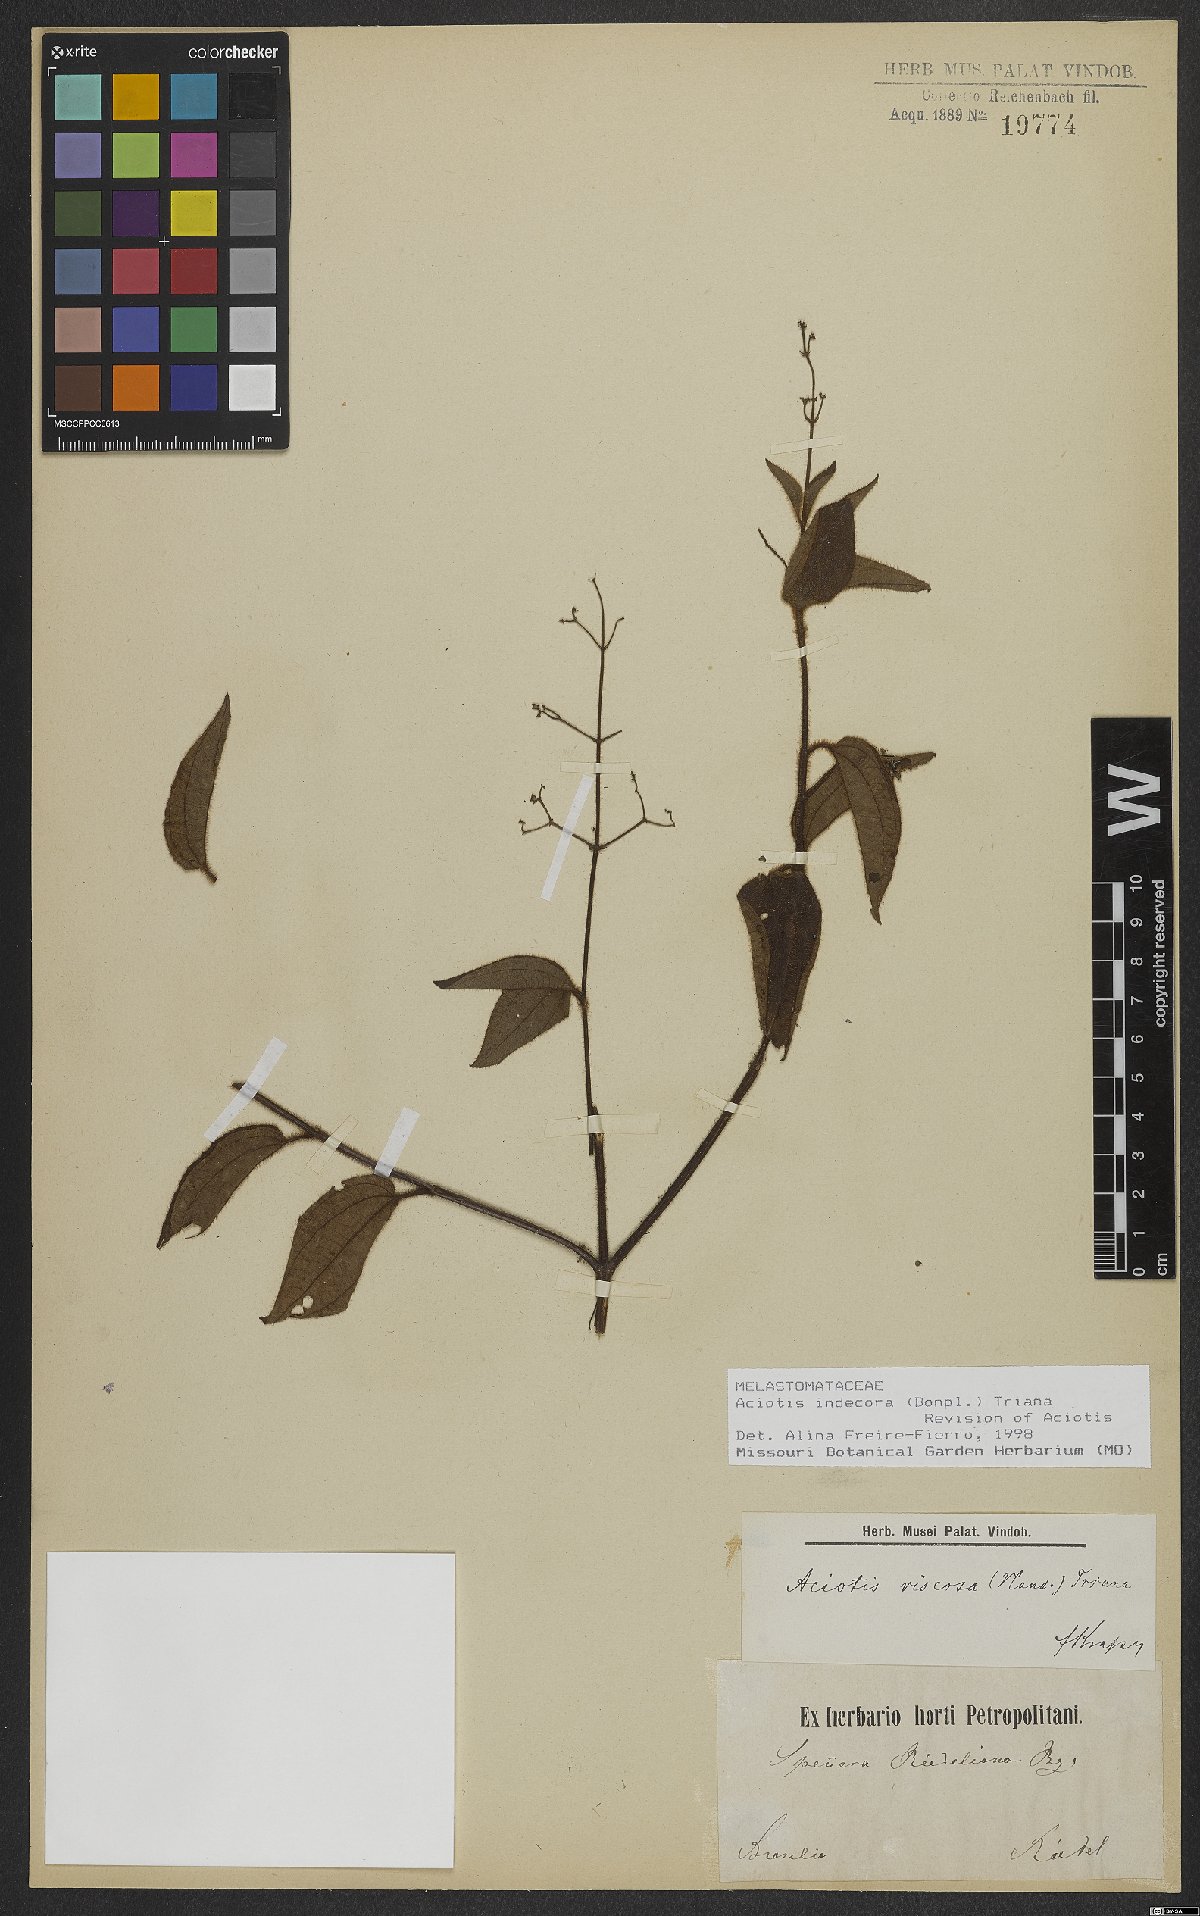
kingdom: Plantae
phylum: Tracheophyta
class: Magnoliopsida
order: Myrtales
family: Melastomataceae
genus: Aciotis
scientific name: Aciotis indecora
